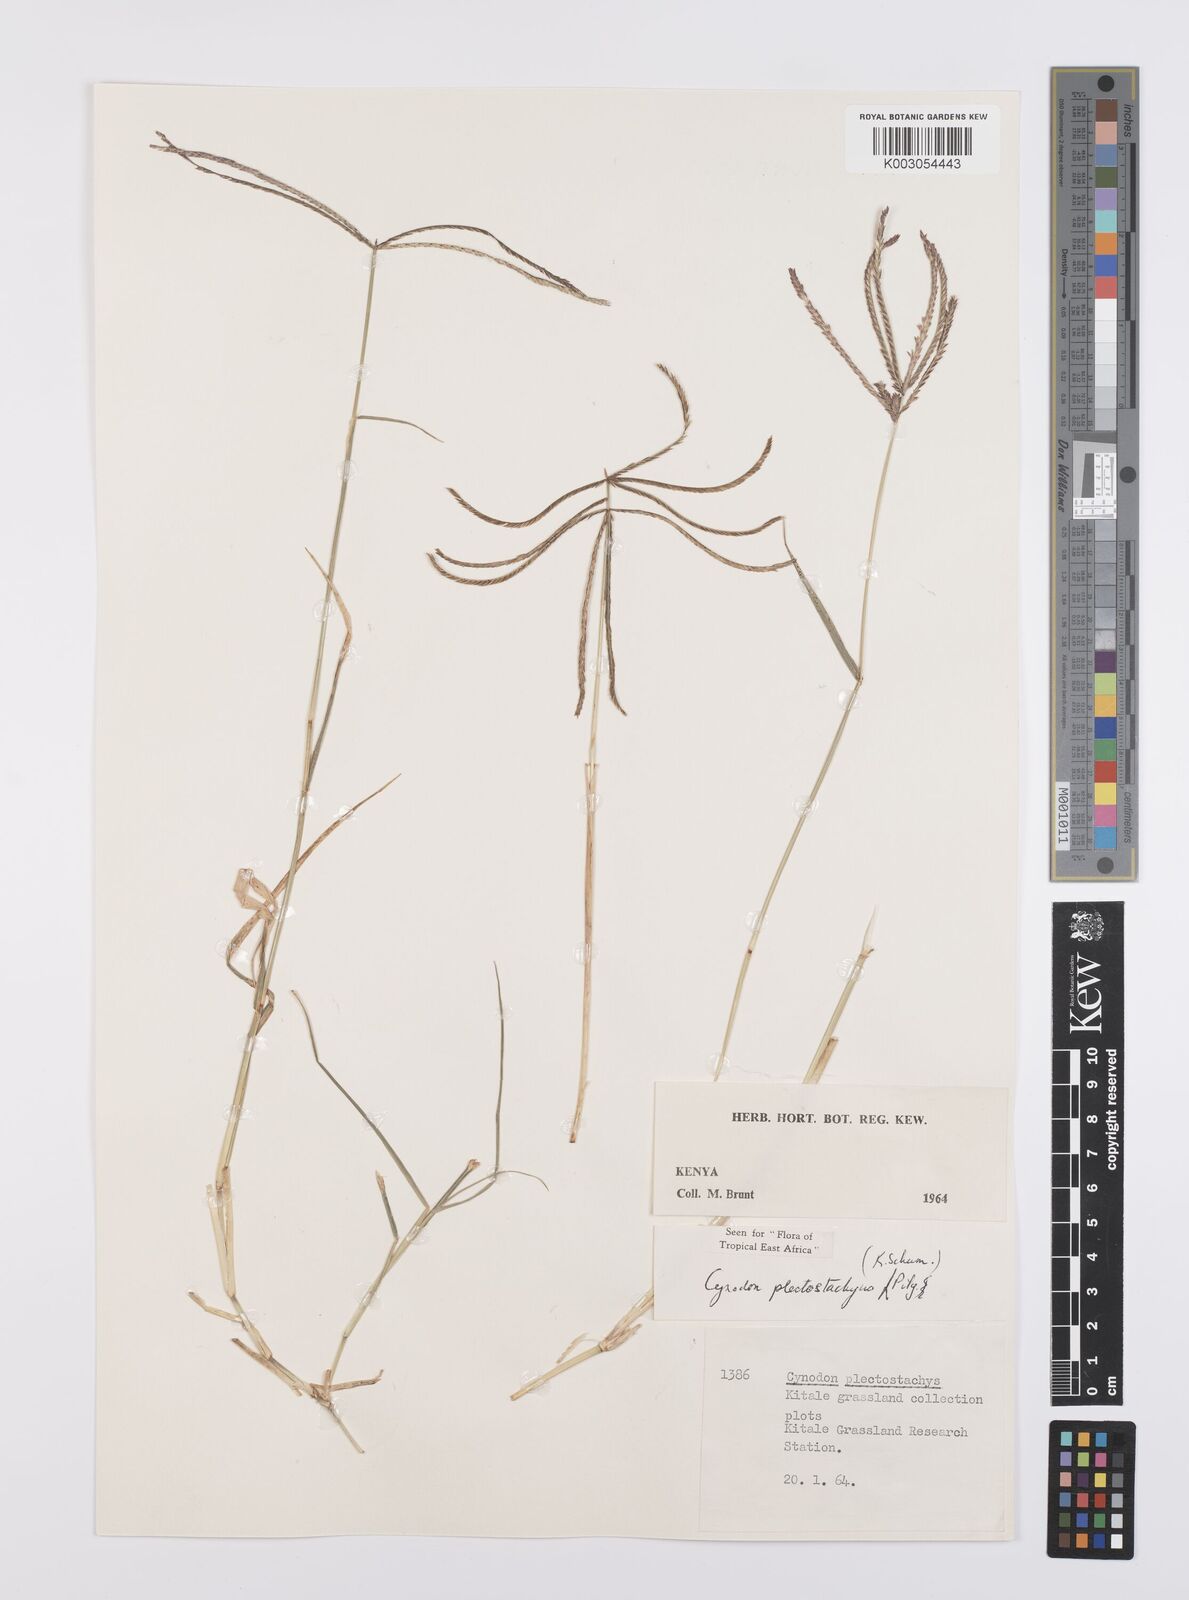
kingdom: Plantae
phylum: Tracheophyta
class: Liliopsida
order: Poales
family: Poaceae
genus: Cynodon
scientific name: Cynodon plectostachyus
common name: Stargrass
